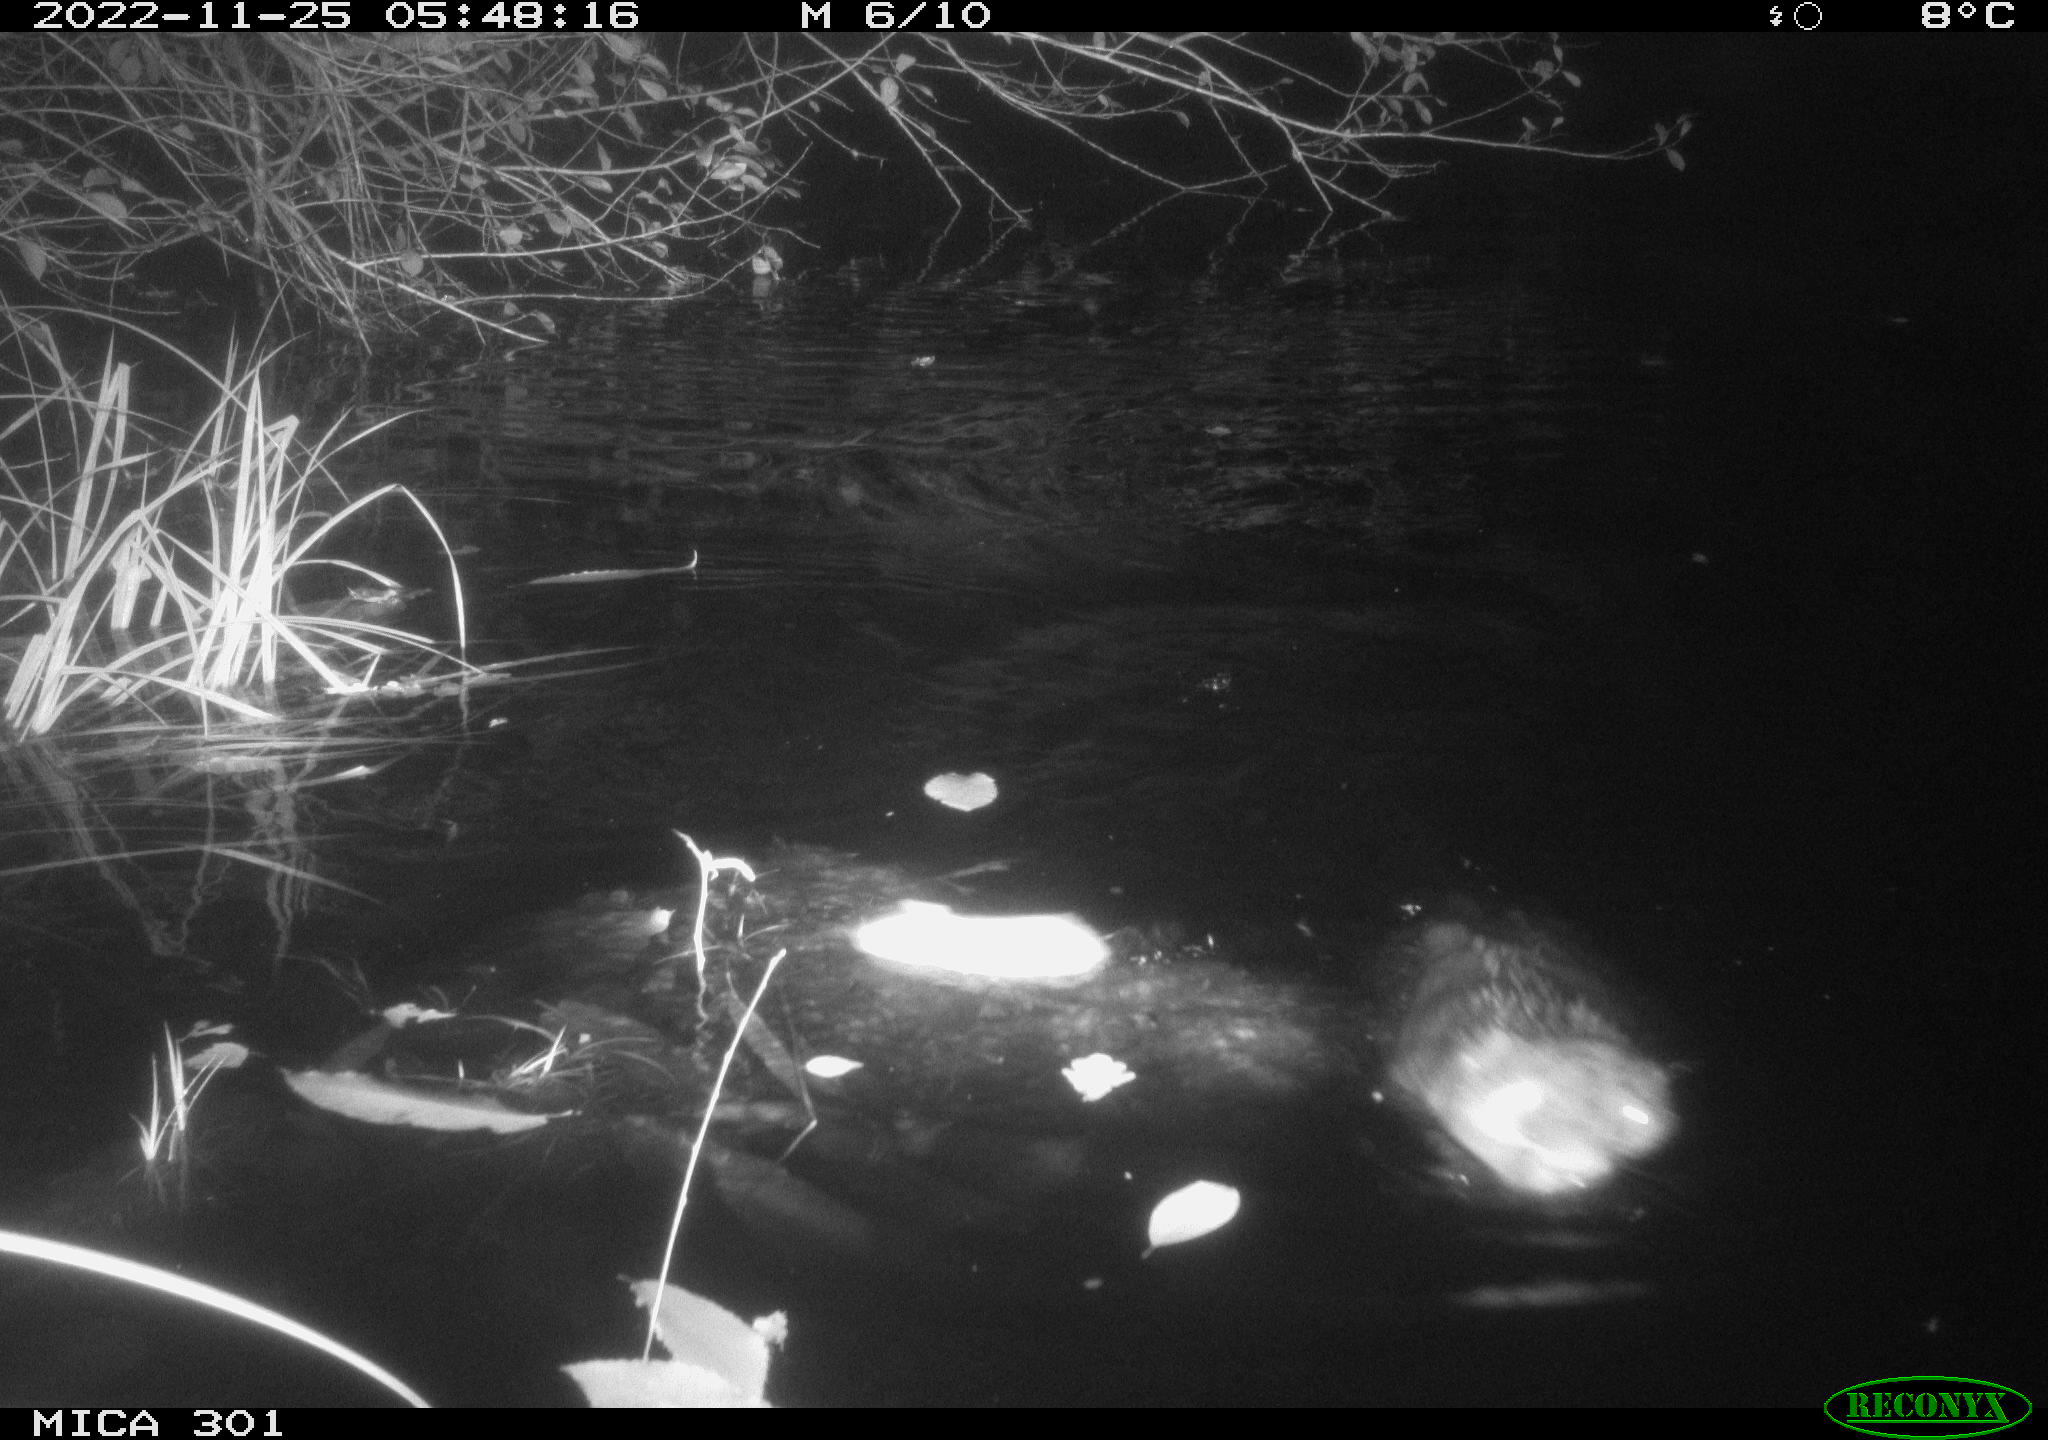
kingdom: Animalia
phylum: Chordata
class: Mammalia
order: Rodentia
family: Castoridae
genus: Castor
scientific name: Castor fiber
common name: Eurasian beaver
